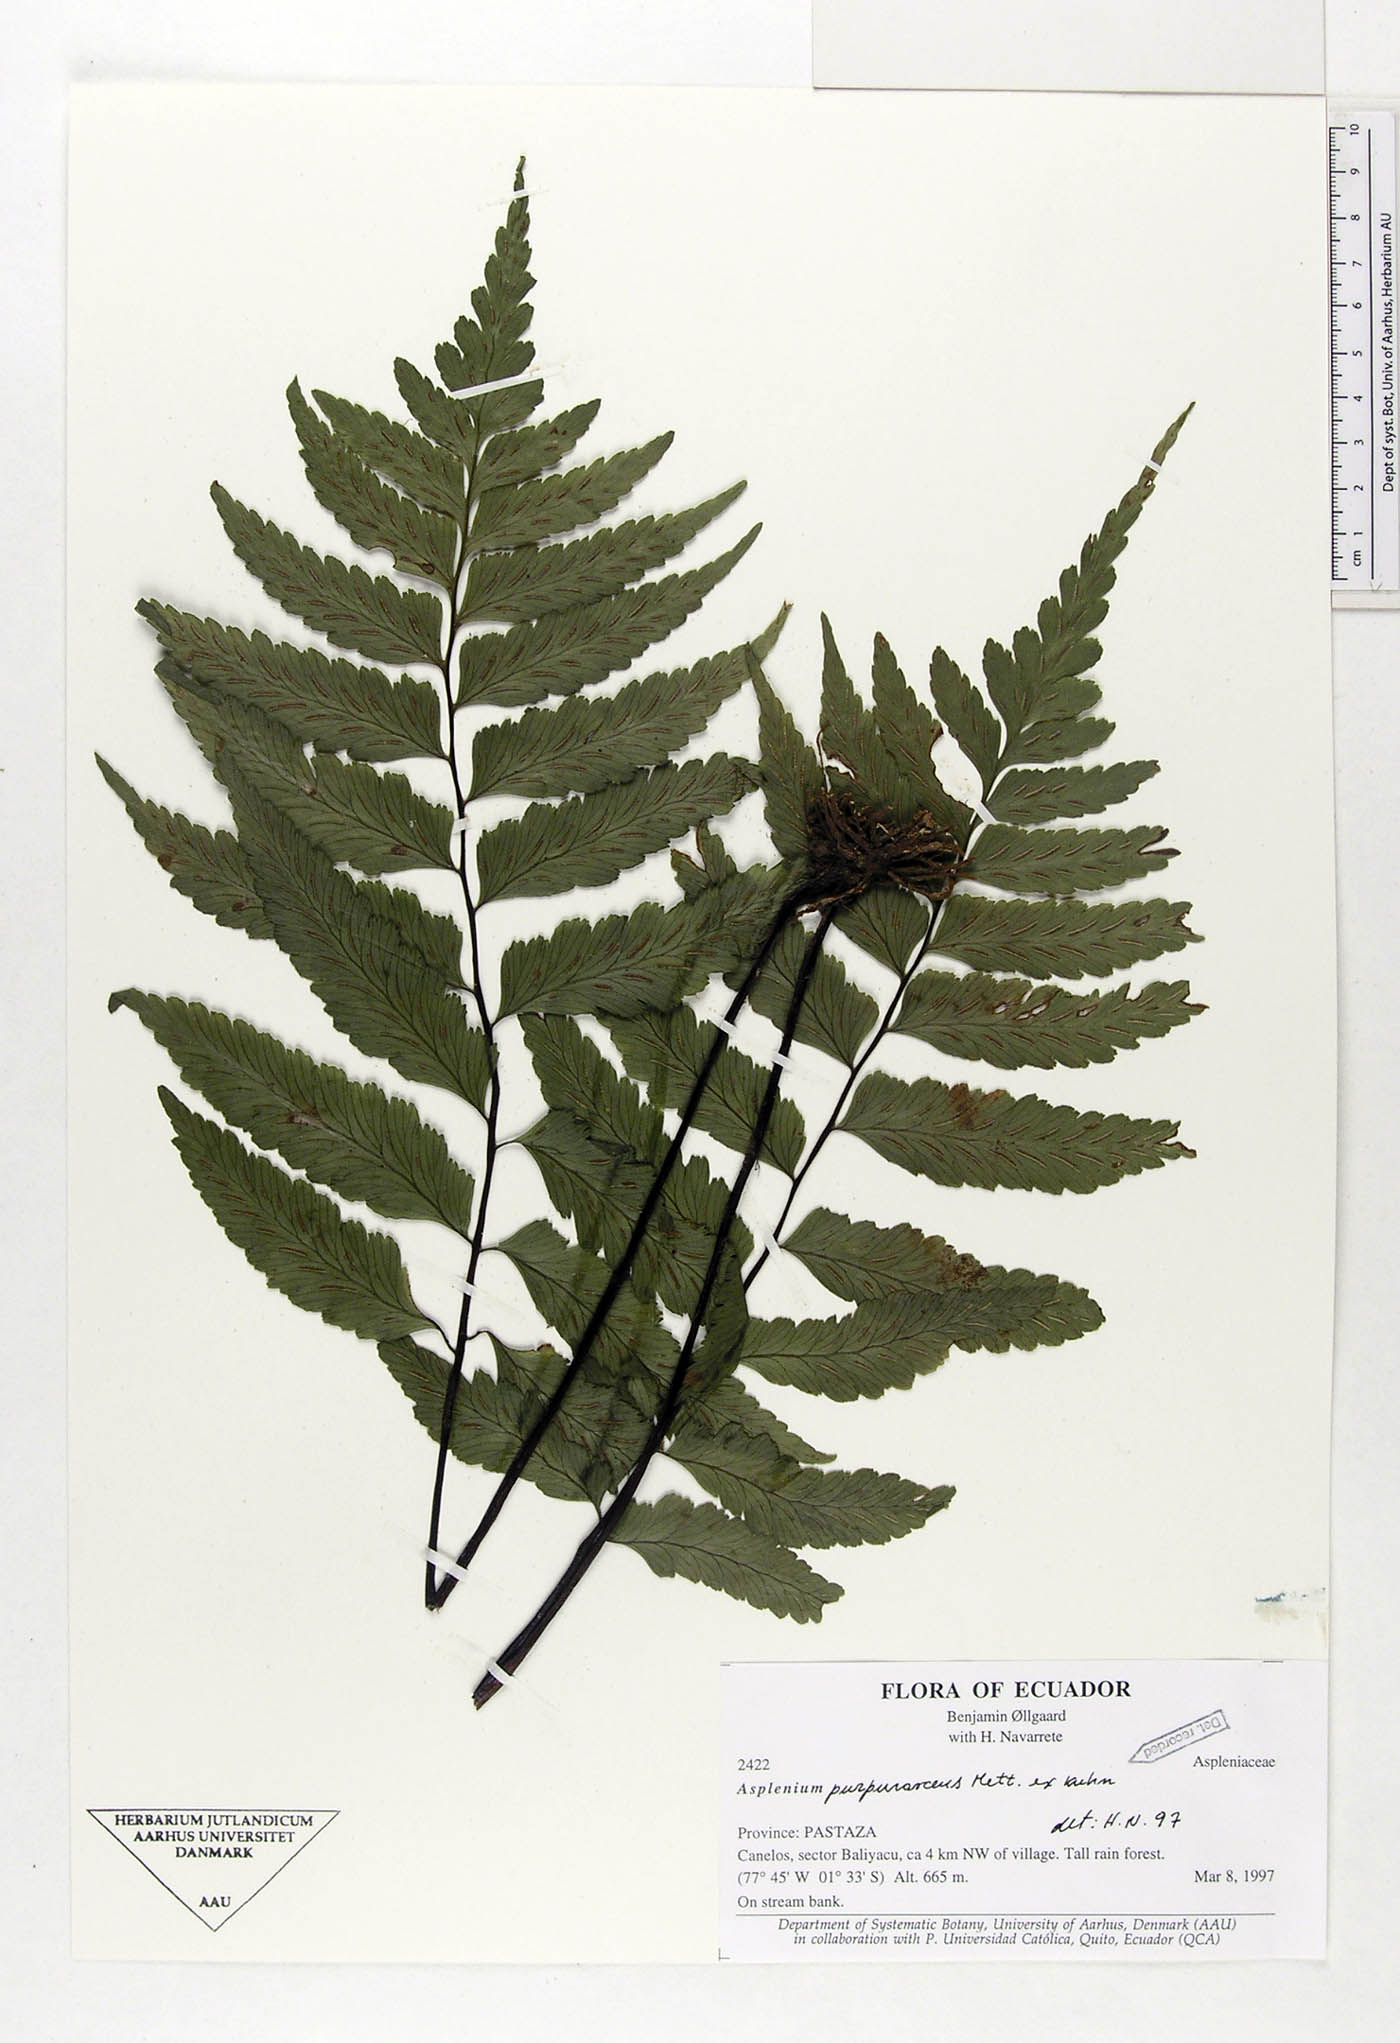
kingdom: Plantae
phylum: Tracheophyta
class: Polypodiopsida
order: Polypodiales
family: Aspleniaceae
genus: Hymenasplenium
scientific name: Hymenasplenium purpurascens
